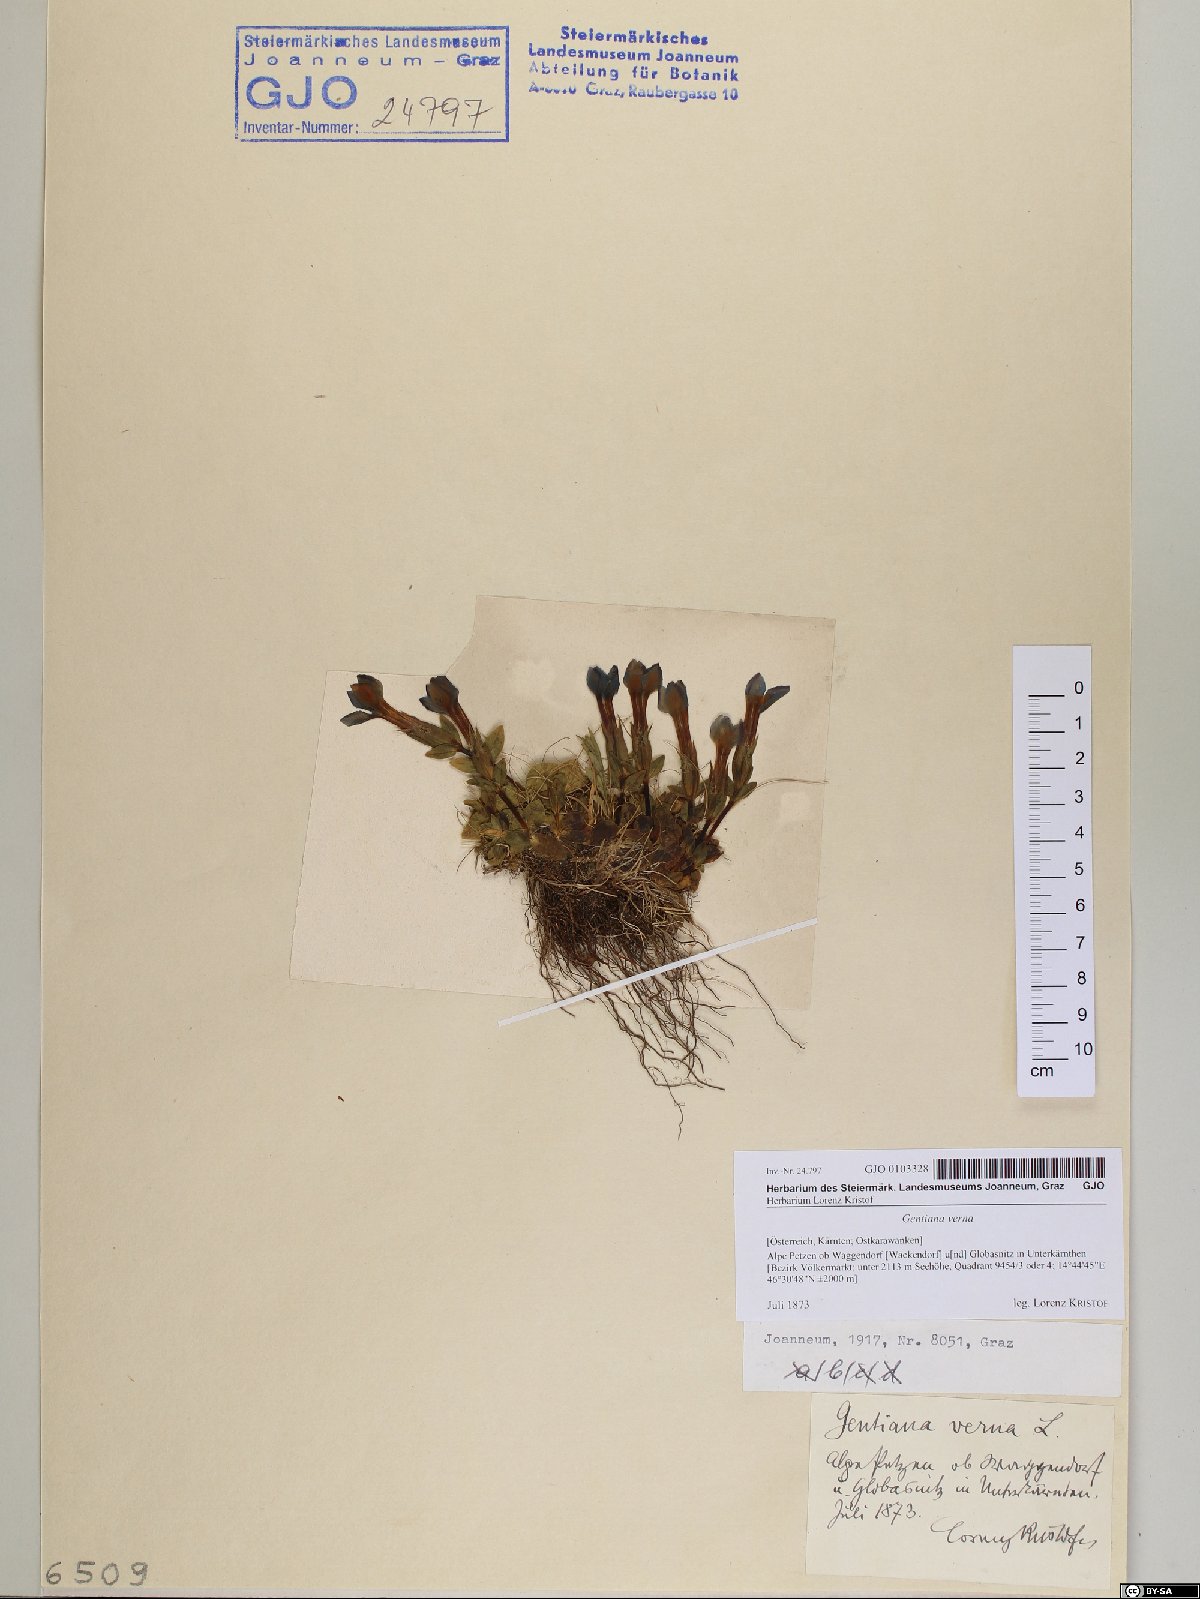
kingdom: Plantae
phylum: Tracheophyta
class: Magnoliopsida
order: Gentianales
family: Gentianaceae
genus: Gentiana
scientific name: Gentiana verna
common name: Spring gentian
